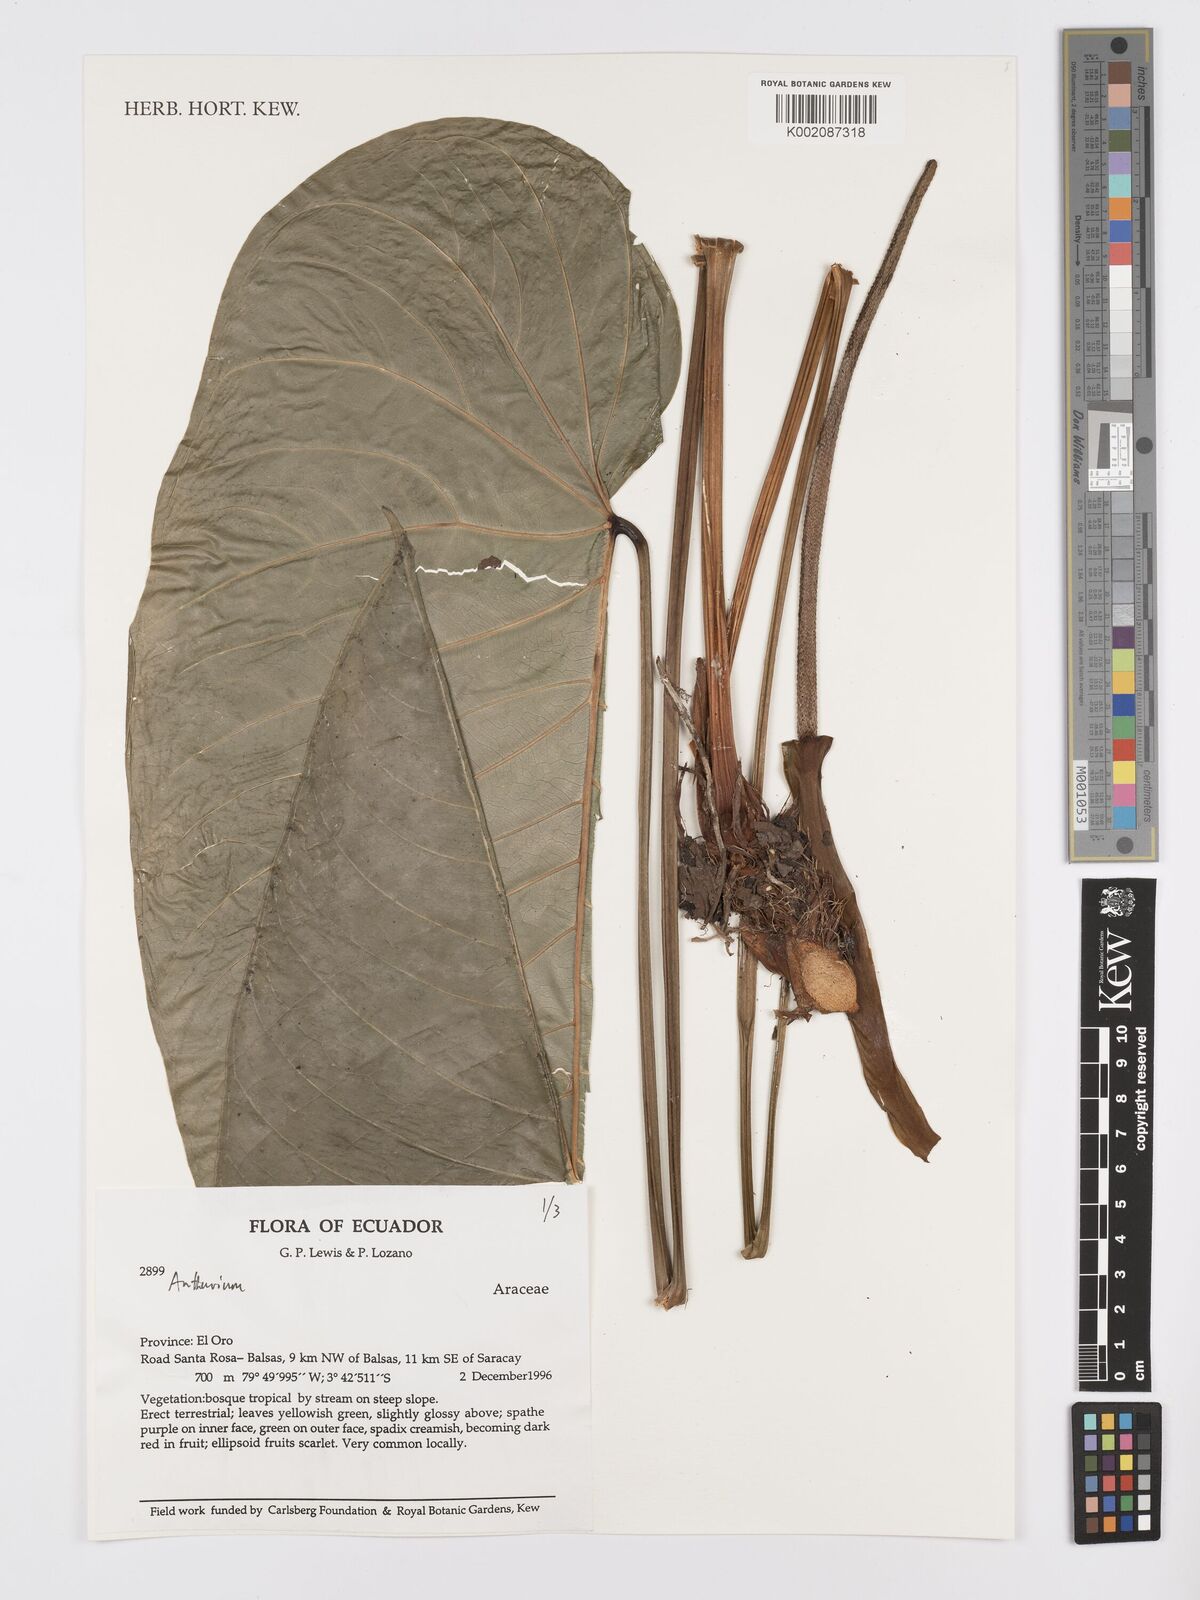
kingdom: Plantae
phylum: Tracheophyta
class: Liliopsida
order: Alismatales
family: Araceae
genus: Anthurium
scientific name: Anthurium
